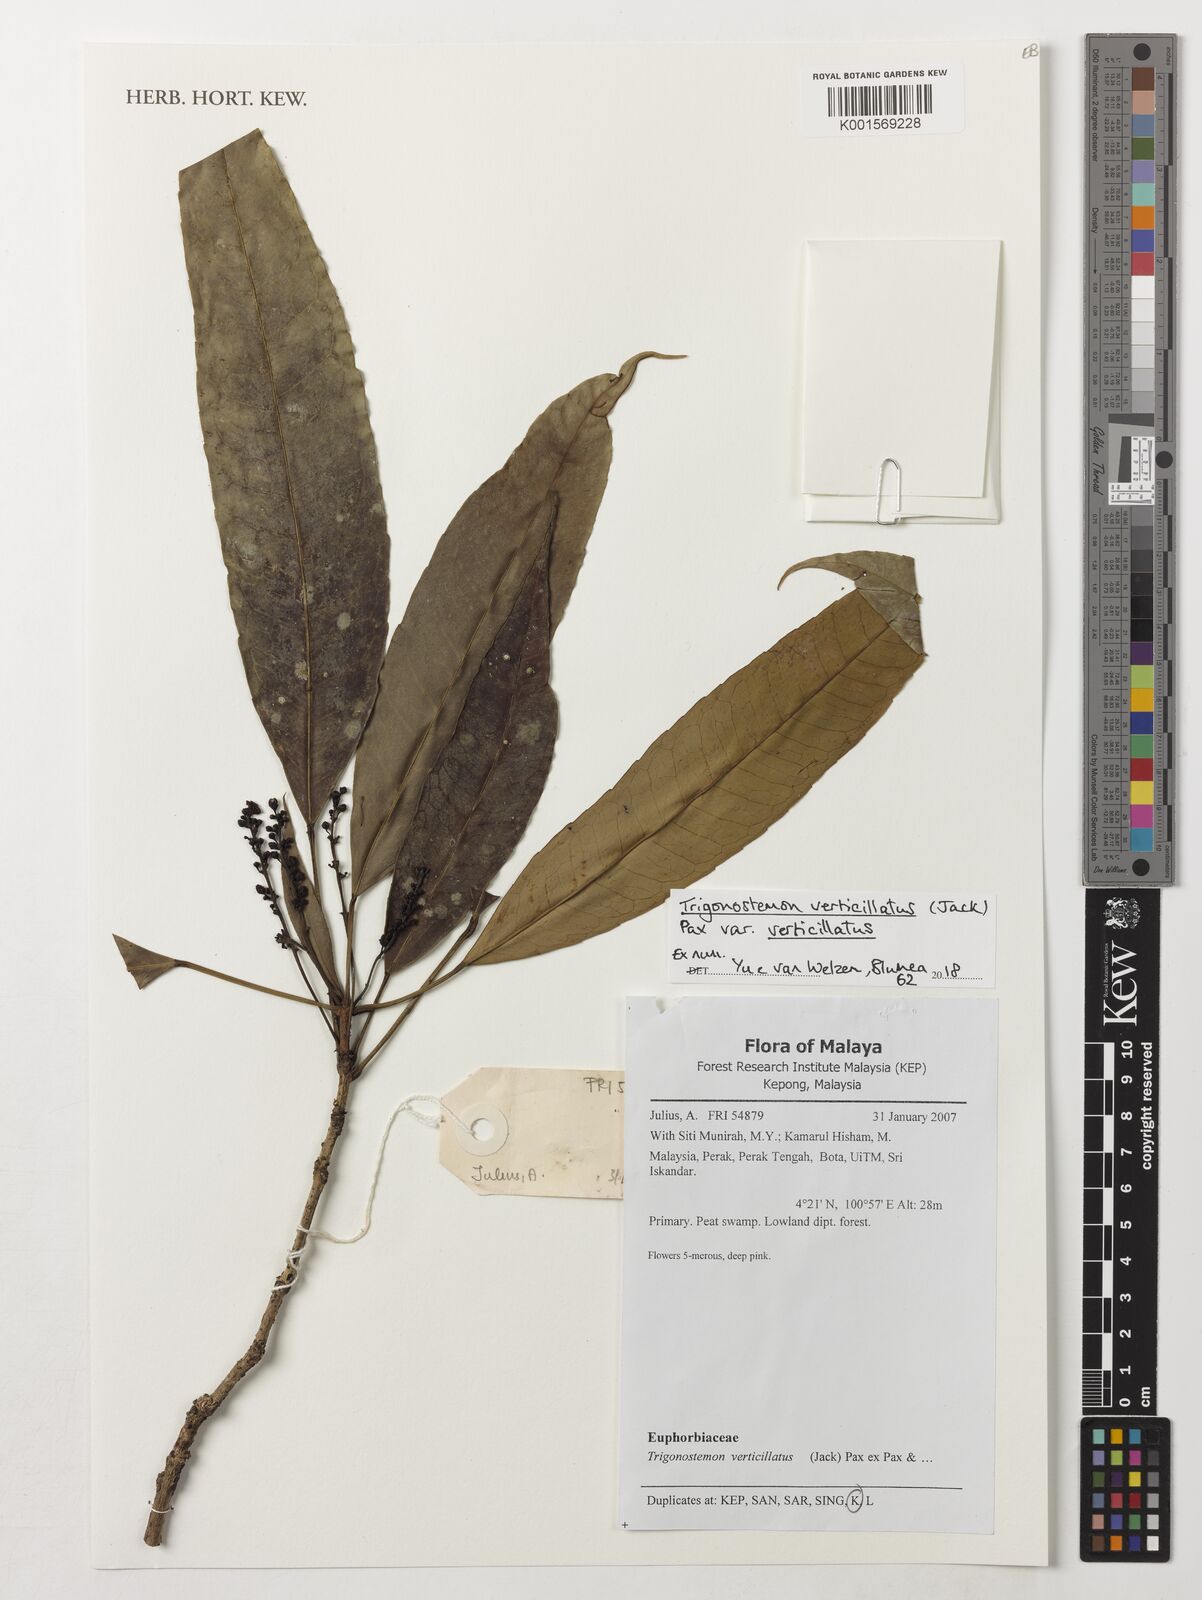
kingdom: Plantae
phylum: Tracheophyta
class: Magnoliopsida
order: Malpighiales
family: Euphorbiaceae
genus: Trigonostemon
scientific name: Trigonostemon verticillatus
